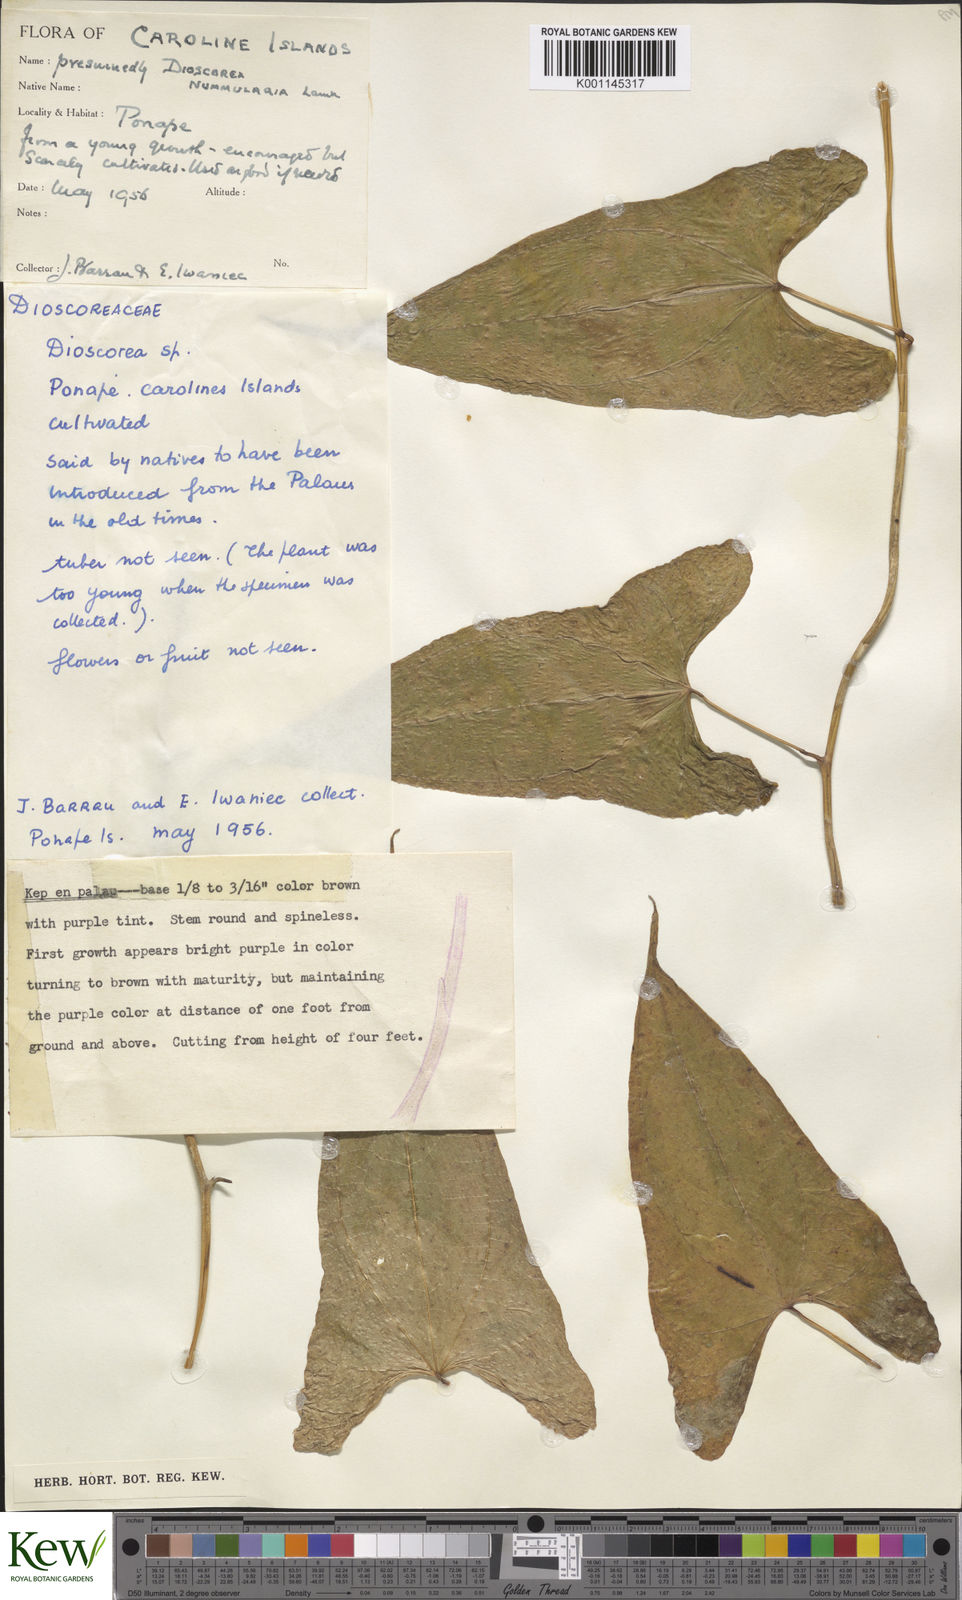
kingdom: Plantae
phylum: Tracheophyta
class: Liliopsida
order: Dioscoreales
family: Dioscoreaceae
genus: Dioscorea
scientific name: Dioscorea nummularia
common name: Pacific yam
